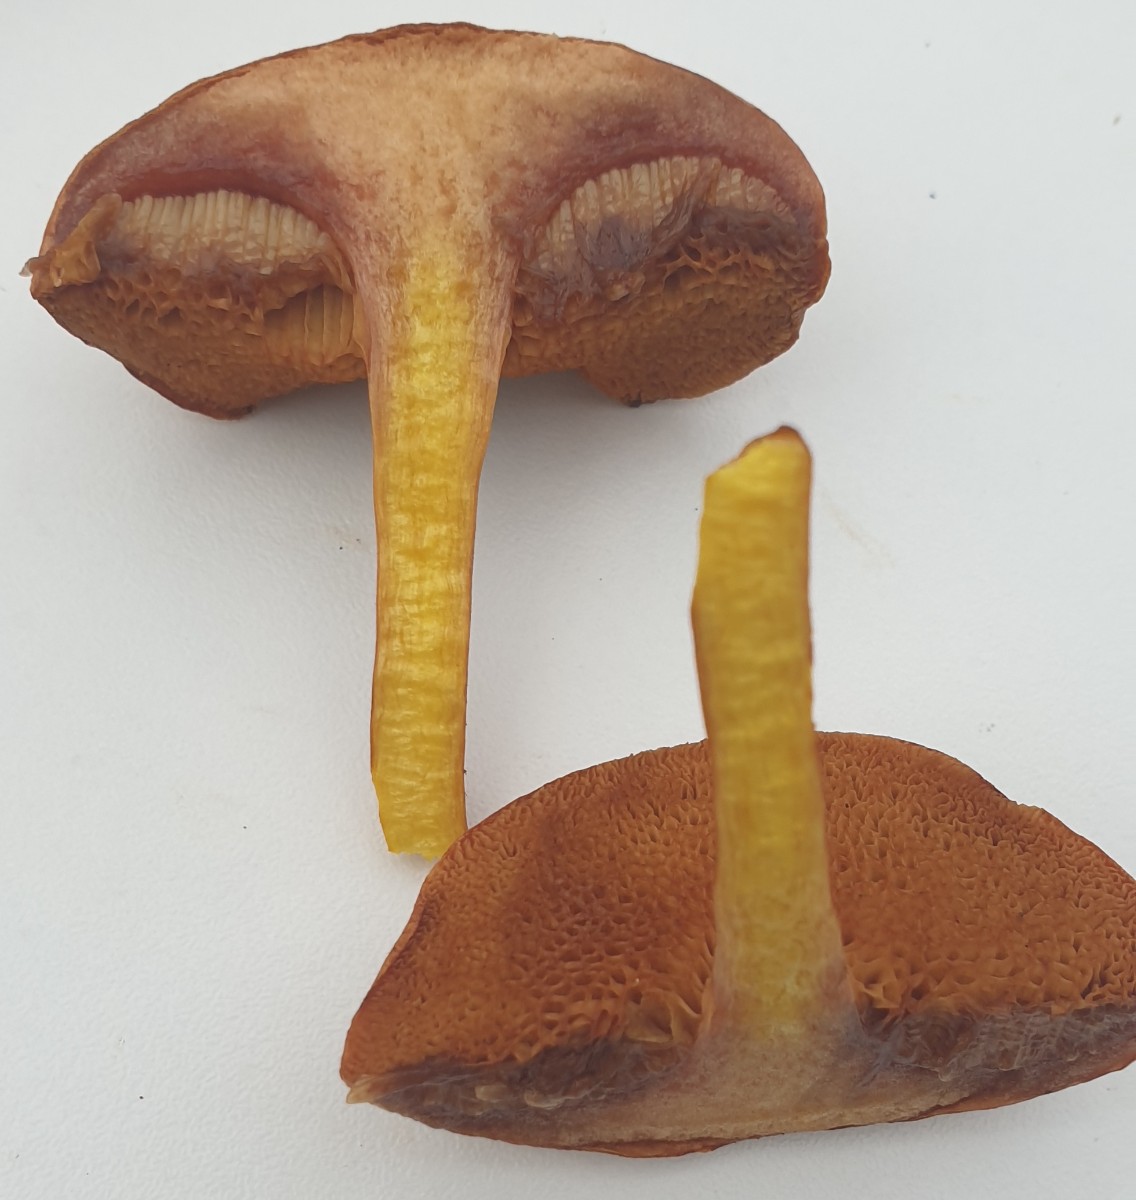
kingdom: Fungi
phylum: Basidiomycota
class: Agaricomycetes
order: Boletales
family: Boletaceae
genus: Chalciporus
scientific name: Chalciporus piperatus
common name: peberrørhat
